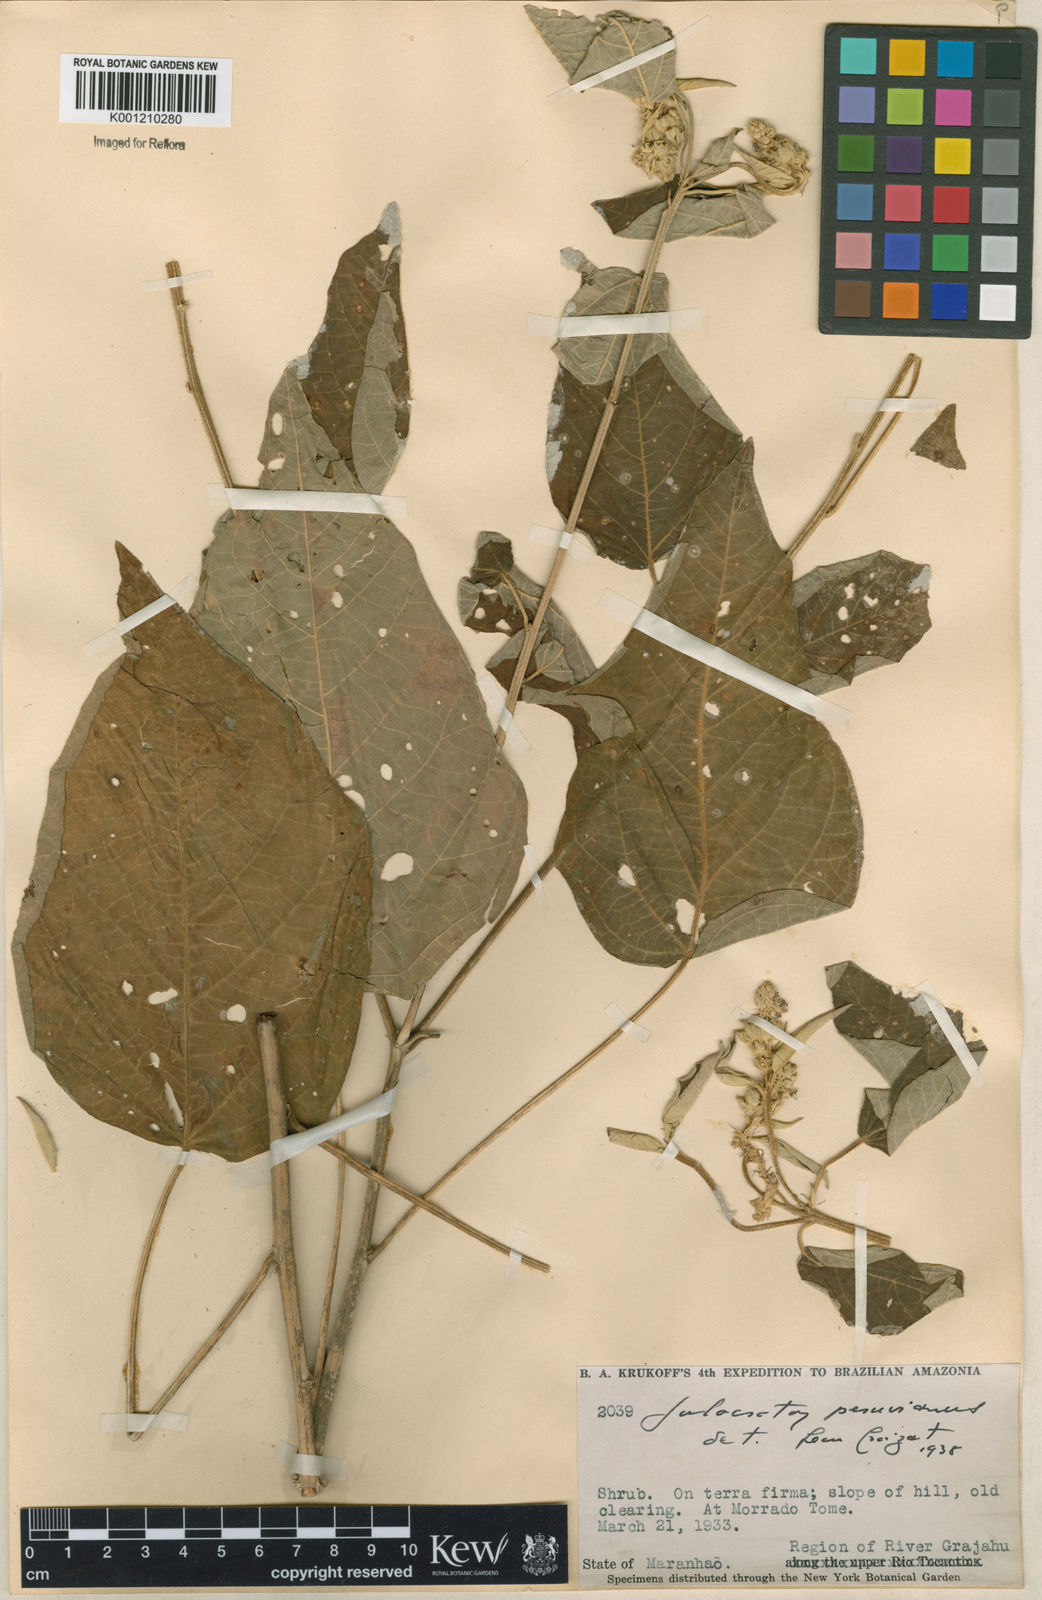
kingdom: Plantae
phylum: Tracheophyta
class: Magnoliopsida
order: Malpighiales
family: Euphorbiaceae
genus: Croton
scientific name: Croton
